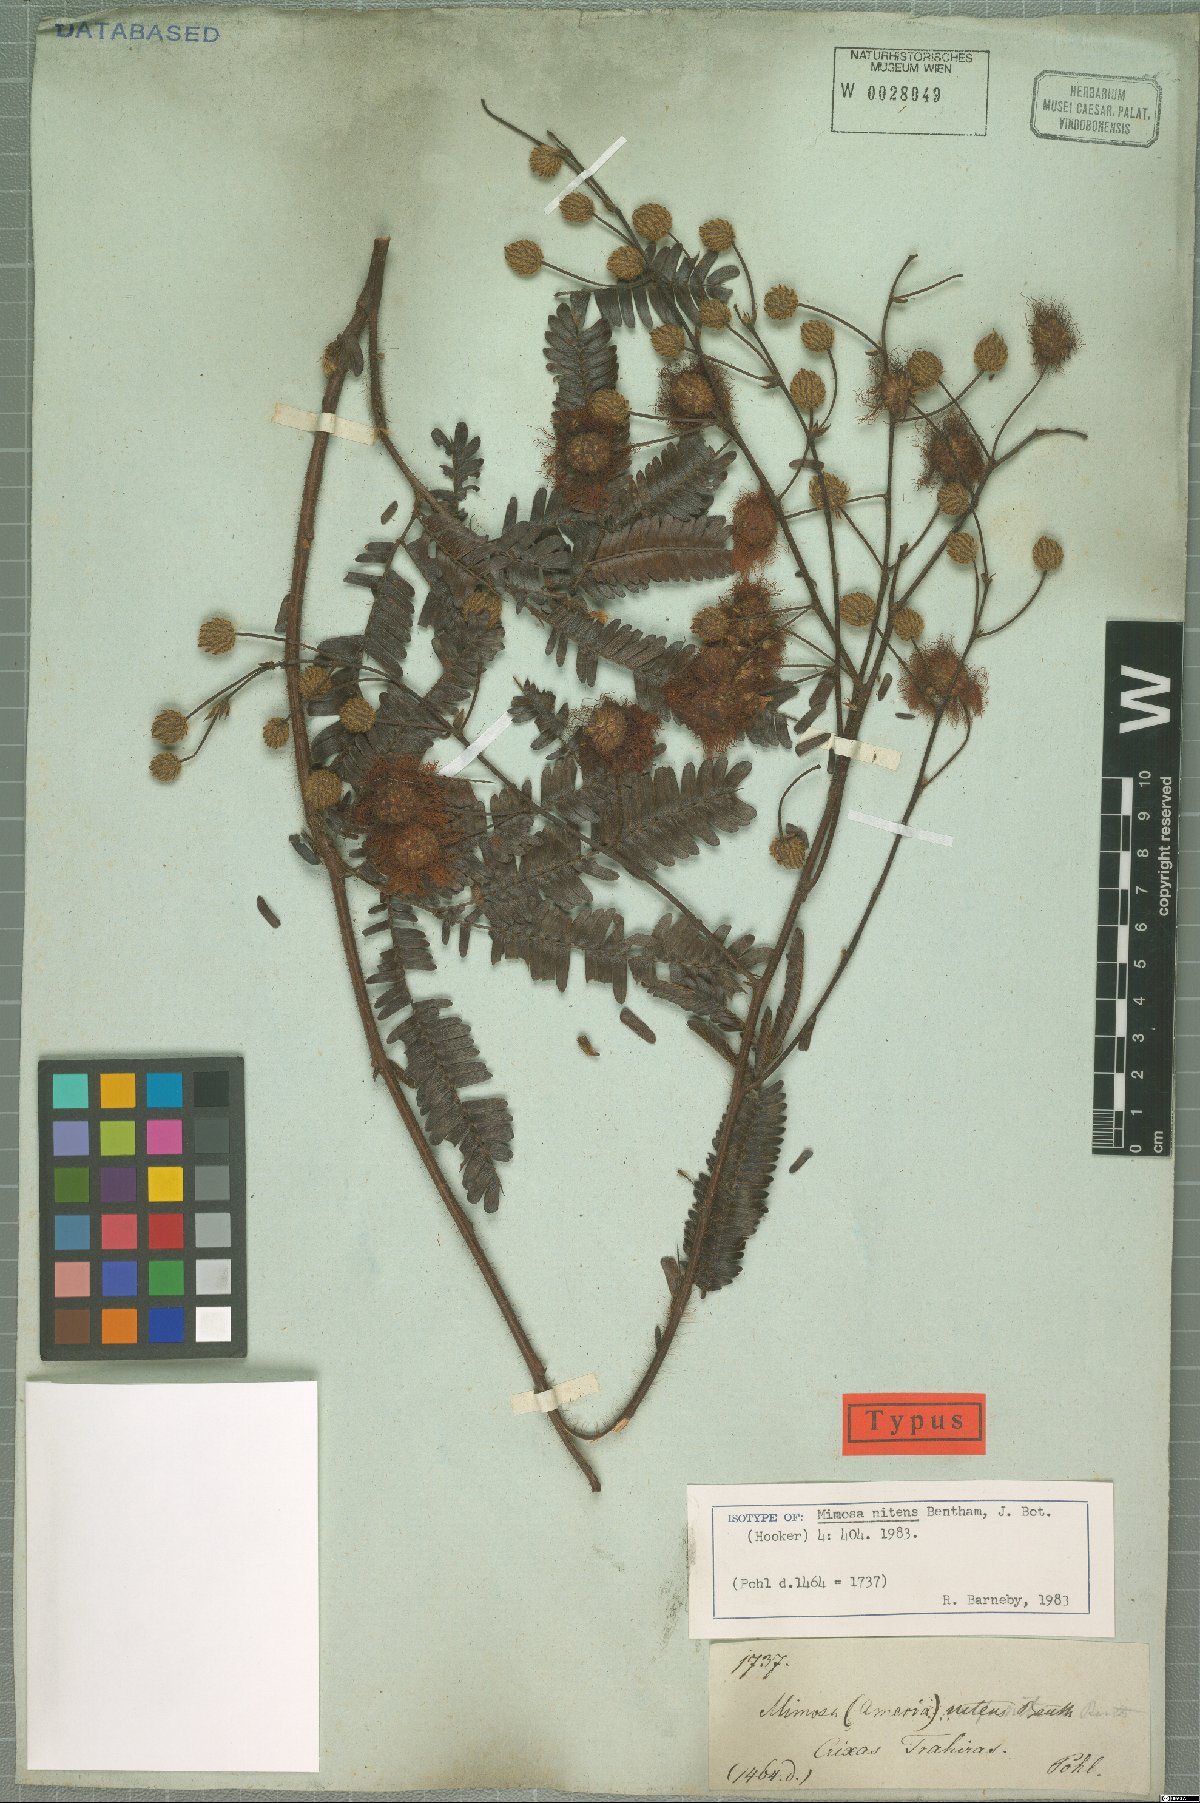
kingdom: Plantae
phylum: Tracheophyta
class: Magnoliopsida
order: Fabales
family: Fabaceae
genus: Mimosa
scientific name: Mimosa nitens
